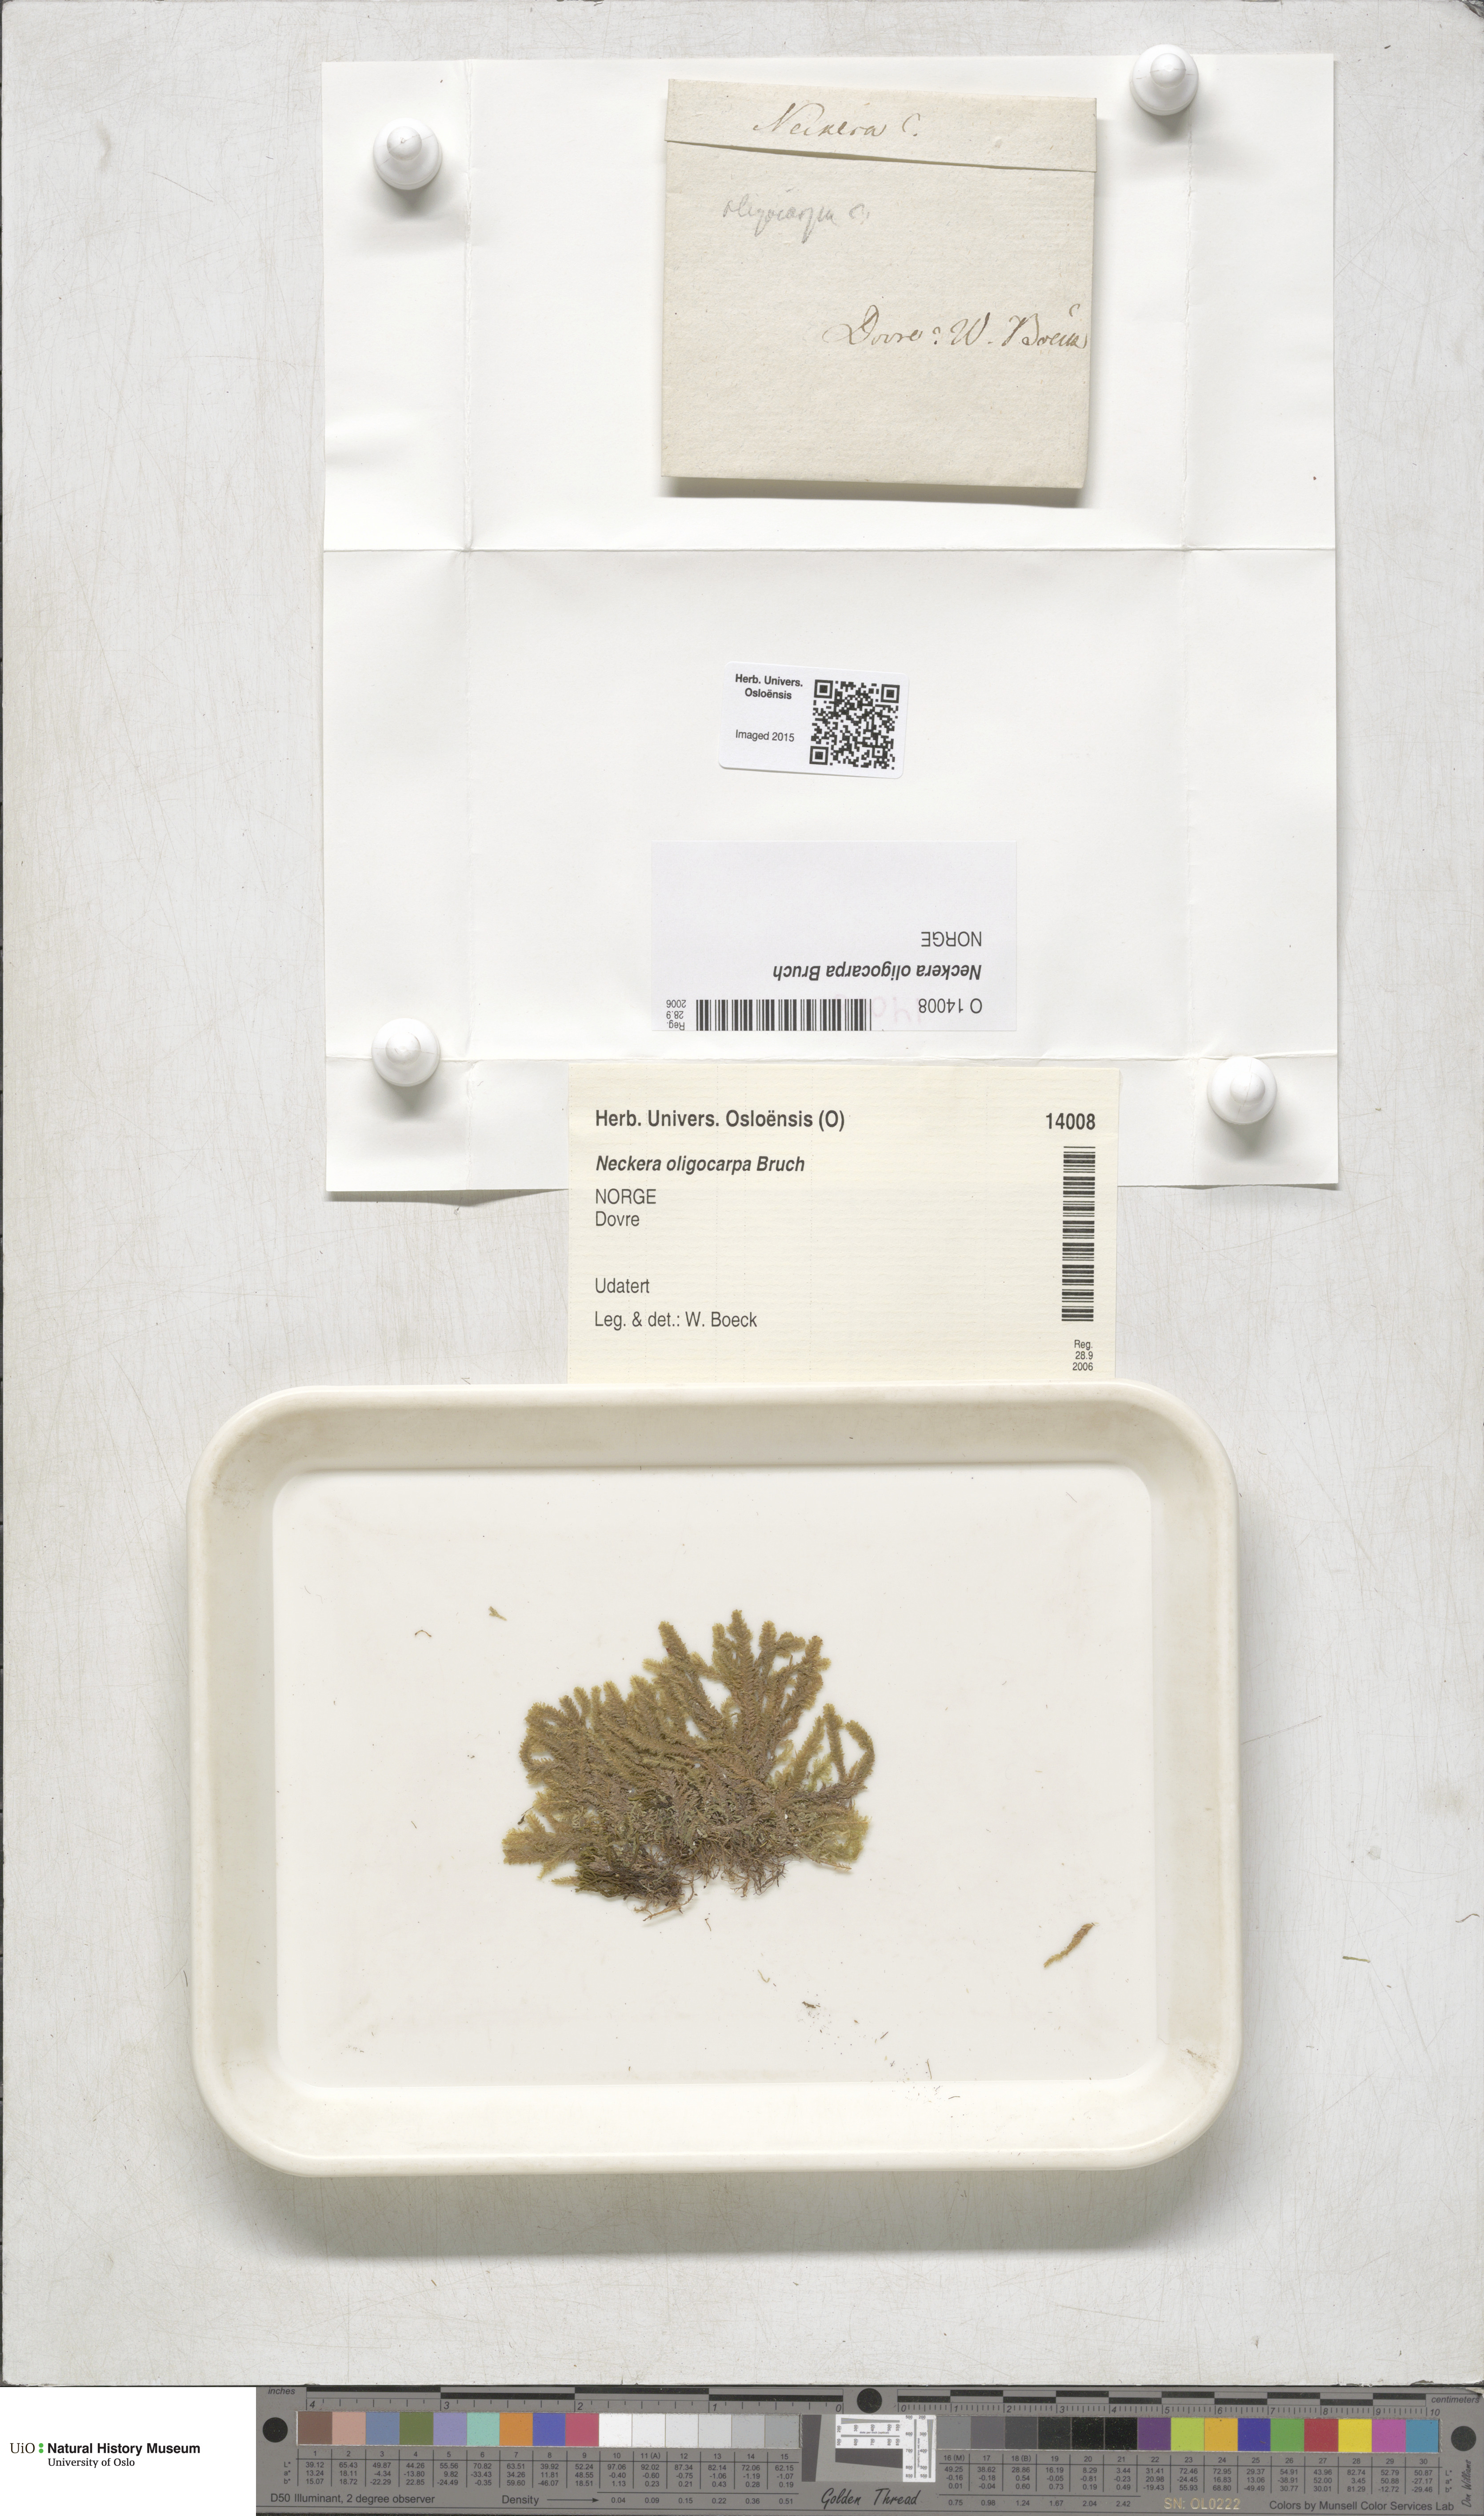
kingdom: Plantae
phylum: Bryophyta
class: Bryopsida
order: Hypnales
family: Neckeraceae
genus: Neckera
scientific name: Neckera oligocarpa
